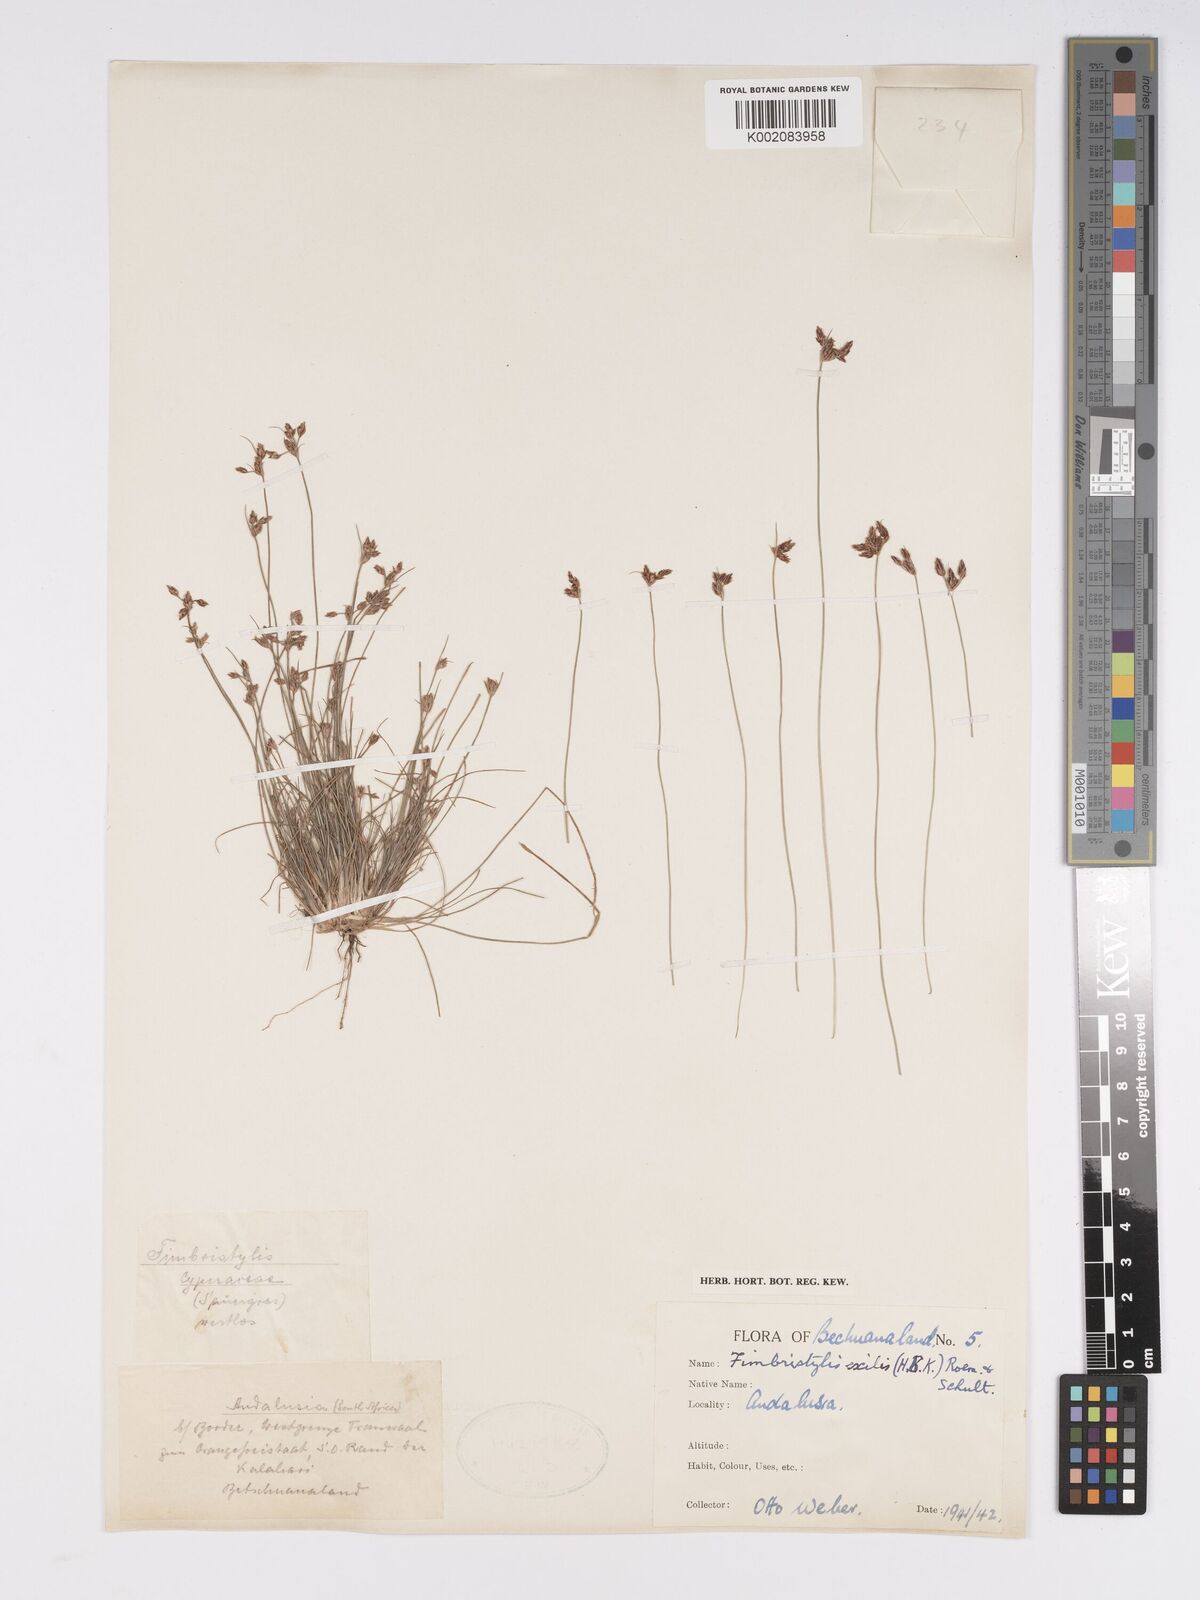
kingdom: Plantae
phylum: Tracheophyta
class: Liliopsida
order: Poales
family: Cyperaceae
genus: Bulbostylis
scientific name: Bulbostylis hispidula
